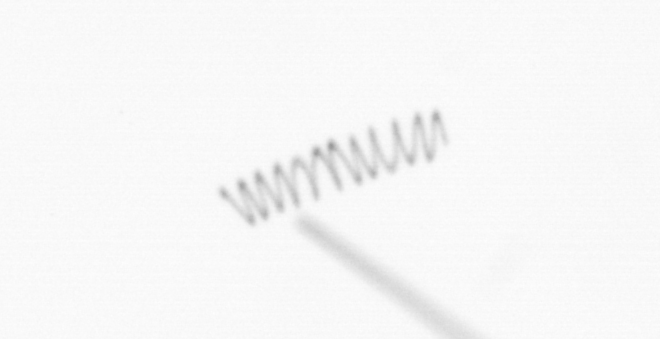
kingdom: Chromista
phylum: Ochrophyta
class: Bacillariophyceae
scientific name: Bacillariophyceae
